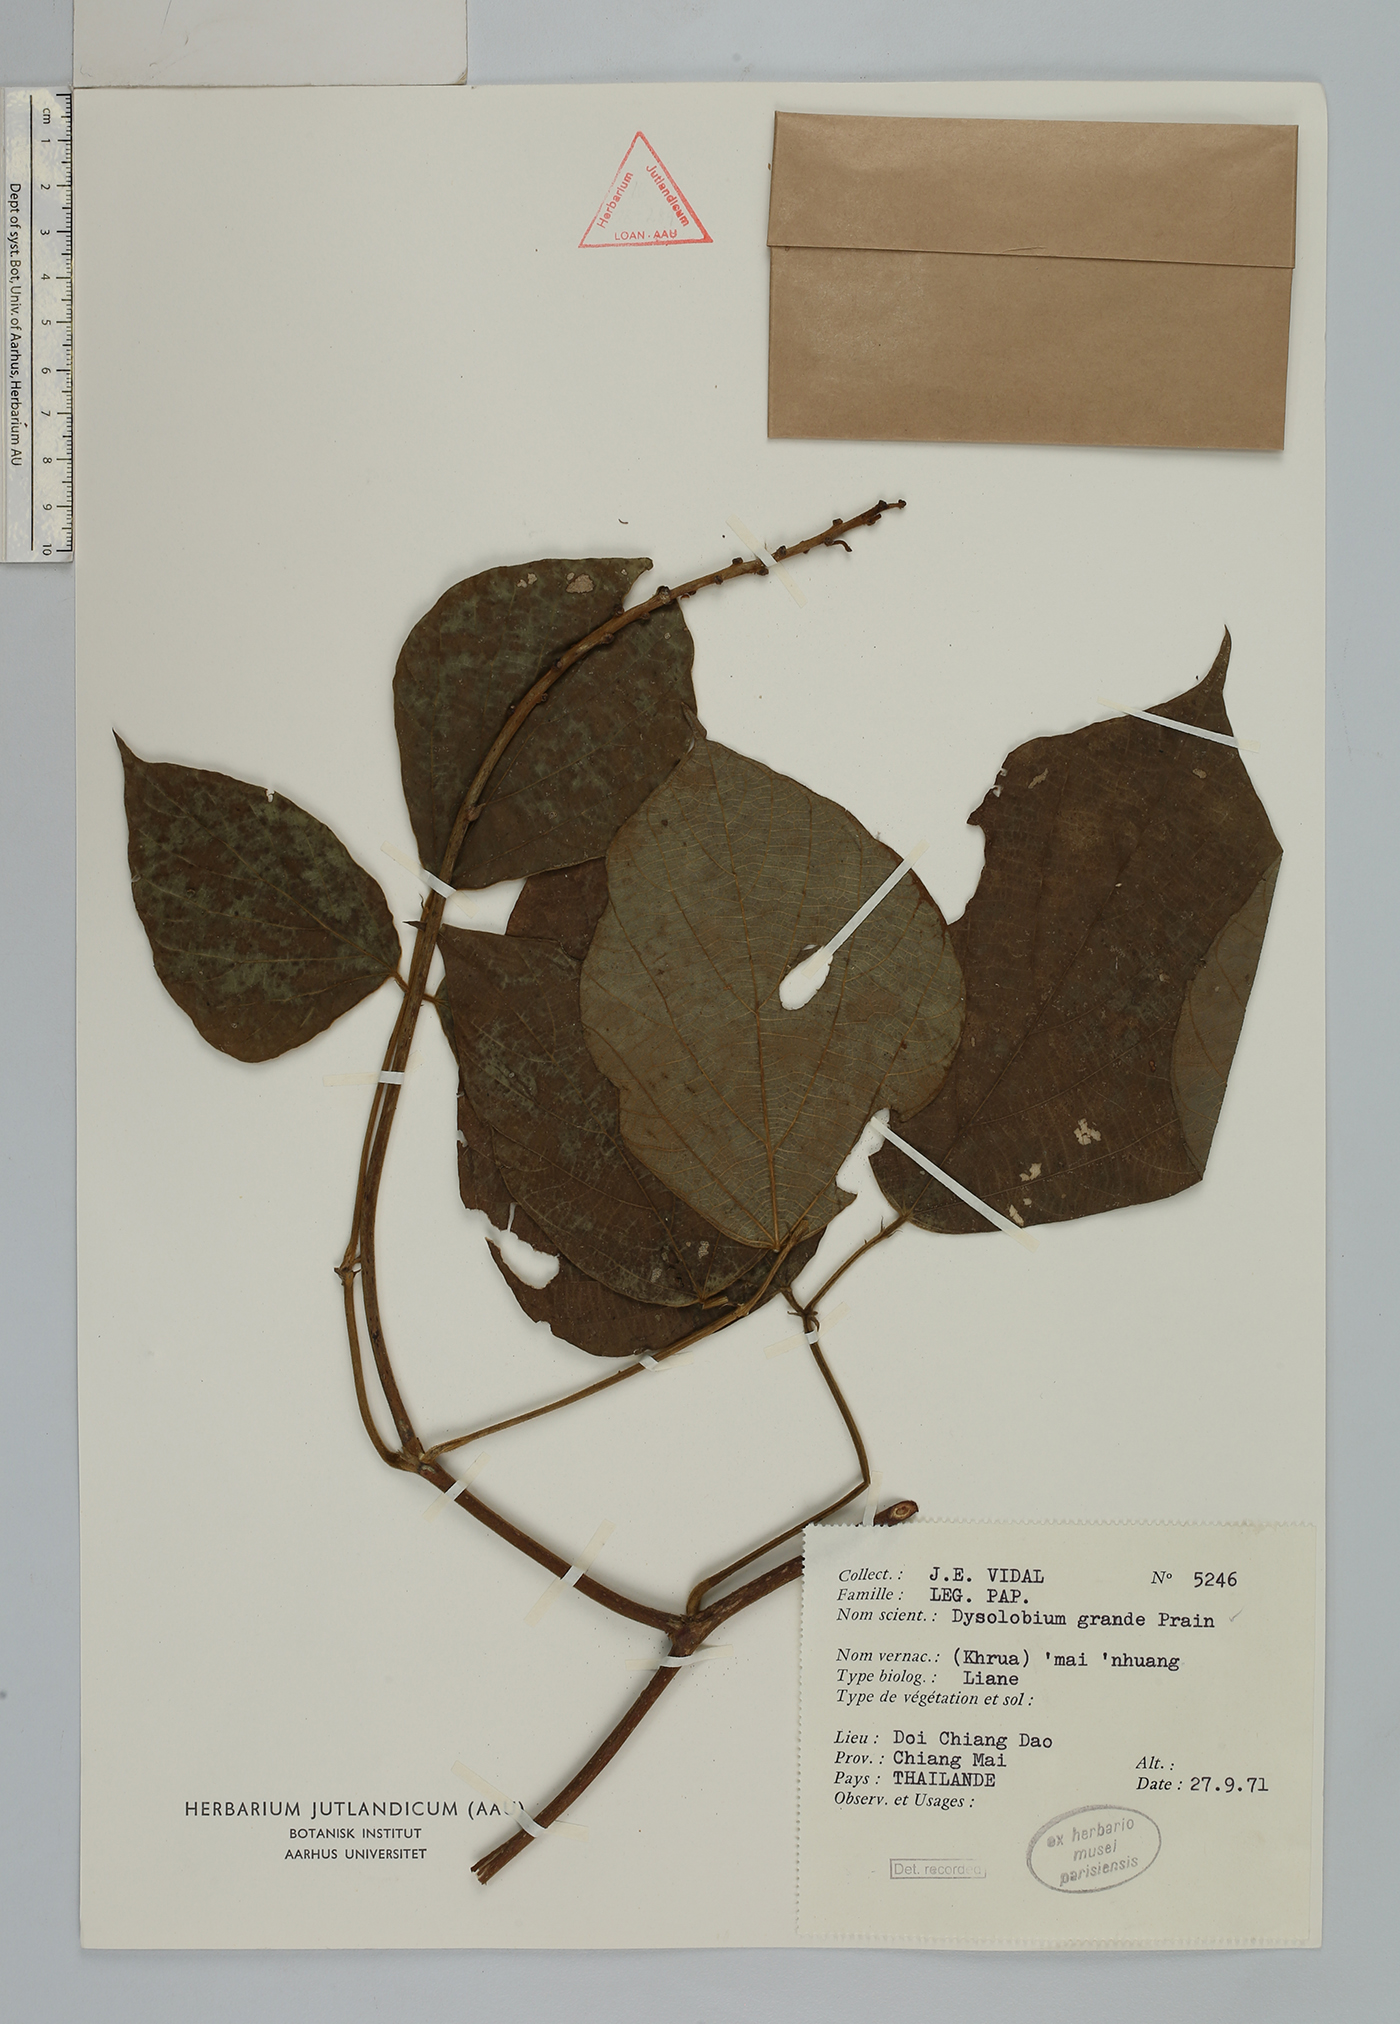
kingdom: Plantae
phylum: Tracheophyta
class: Magnoliopsida
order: Fabales
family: Fabaceae
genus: Dysolobium
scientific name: Dysolobium grande
